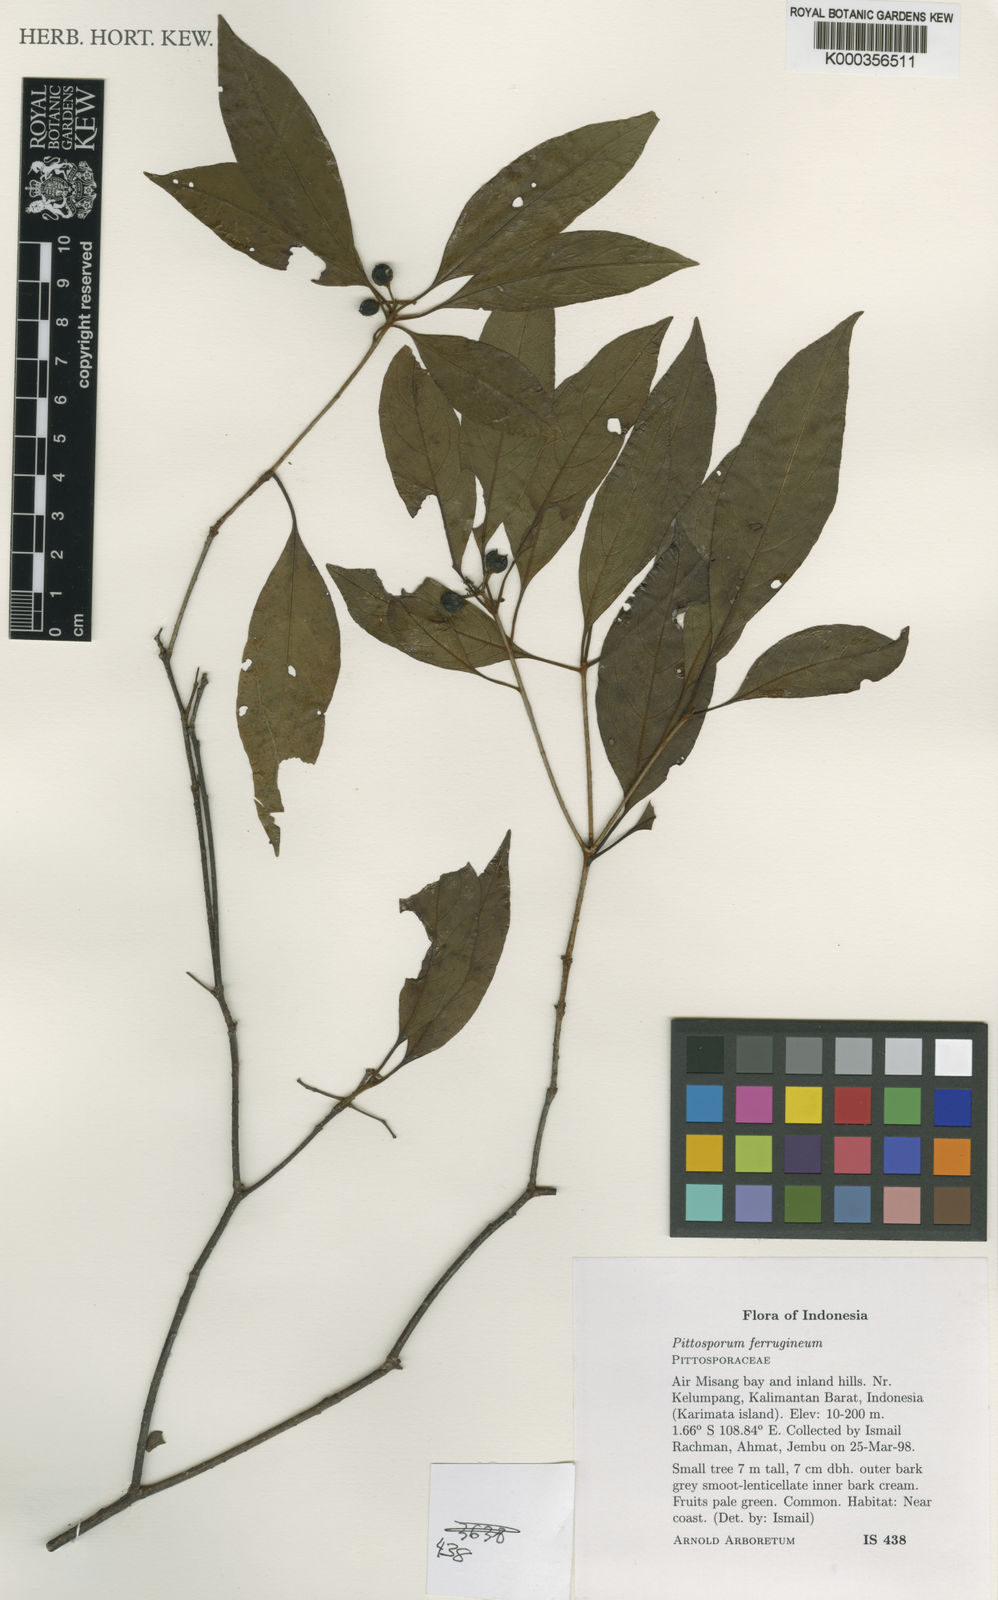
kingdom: Plantae
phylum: Tracheophyta
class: Magnoliopsida
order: Apiales
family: Pittosporaceae
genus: Pittosporum
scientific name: Pittosporum ferrugineum
